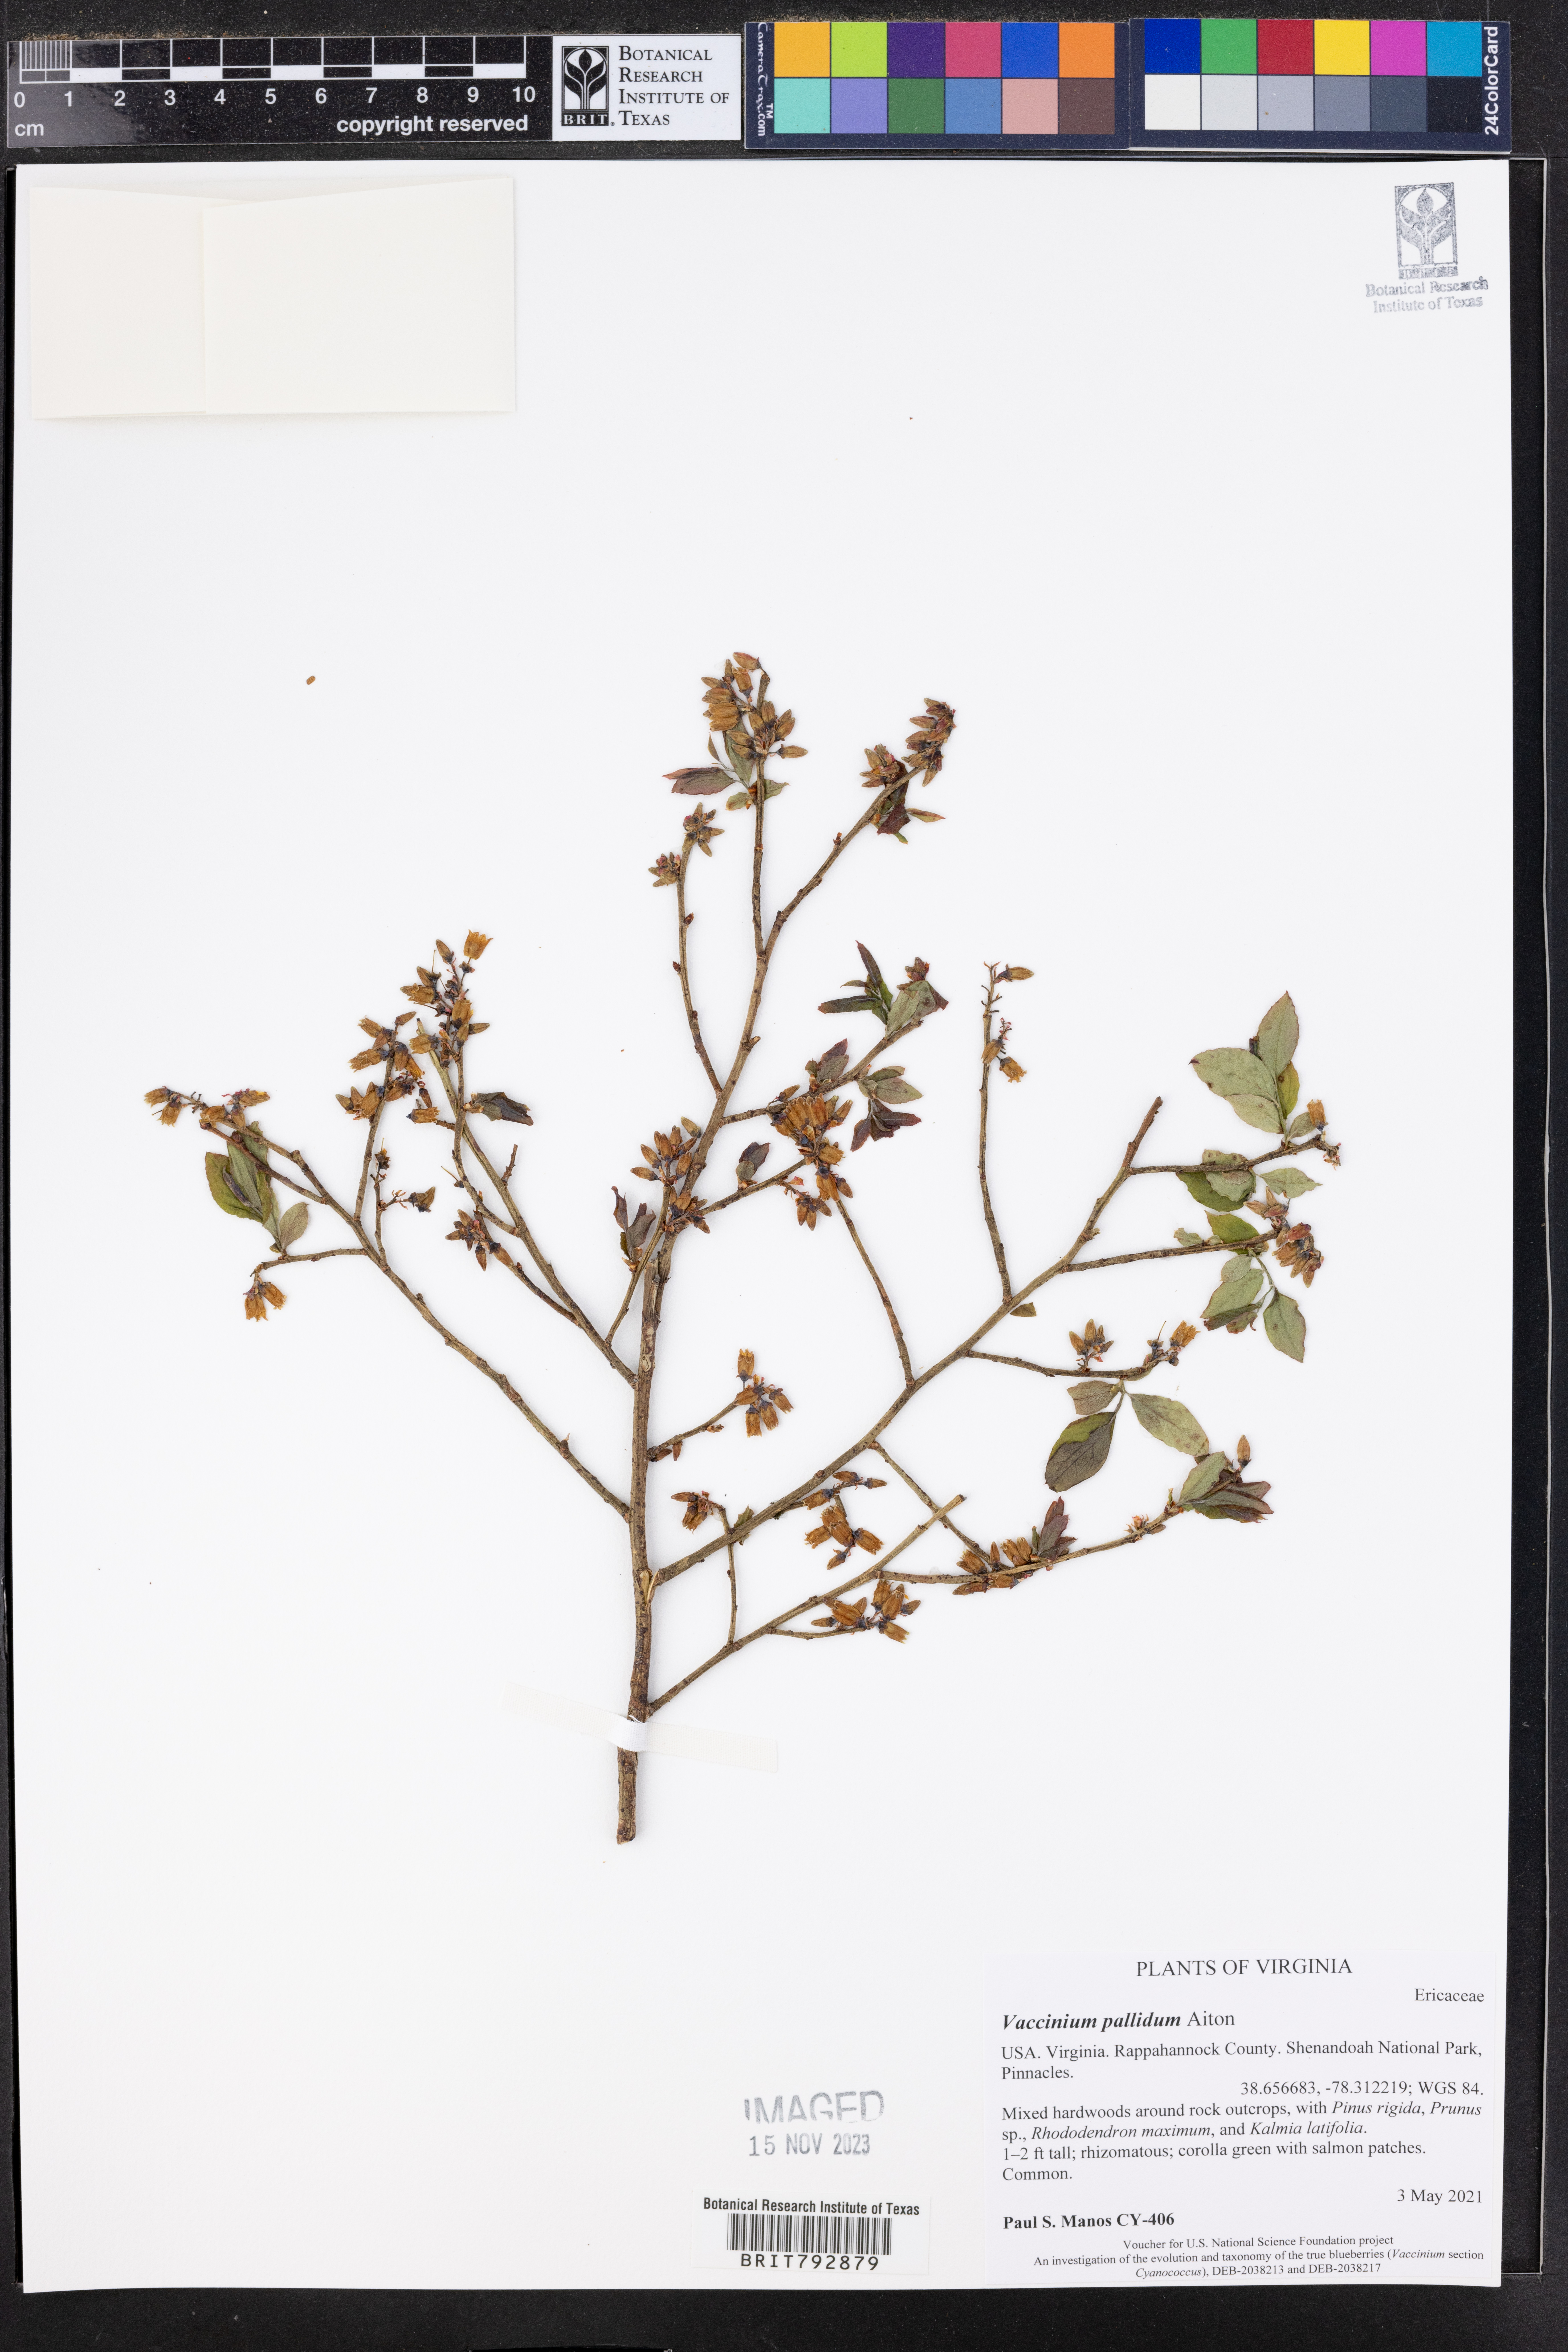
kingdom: Plantae
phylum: Tracheophyta
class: Magnoliopsida
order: Ericales
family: Ericaceae
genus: Vaccinium
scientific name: Vaccinium pallidum
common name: Blue ridge blueberry
